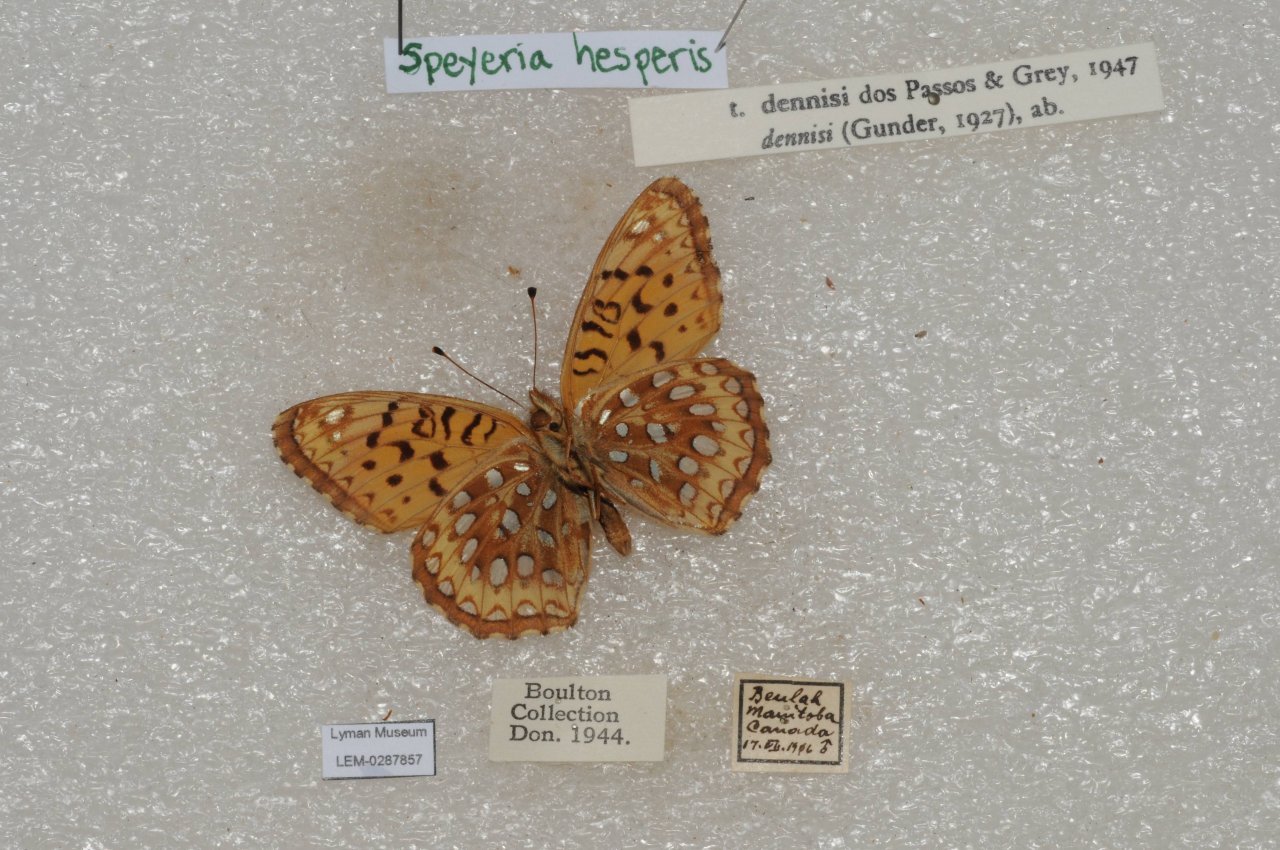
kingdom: Animalia
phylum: Arthropoda
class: Insecta
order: Lepidoptera
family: Nymphalidae
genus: Speyeria
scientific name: Speyeria atlantis
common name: Northwestern Fritillary
